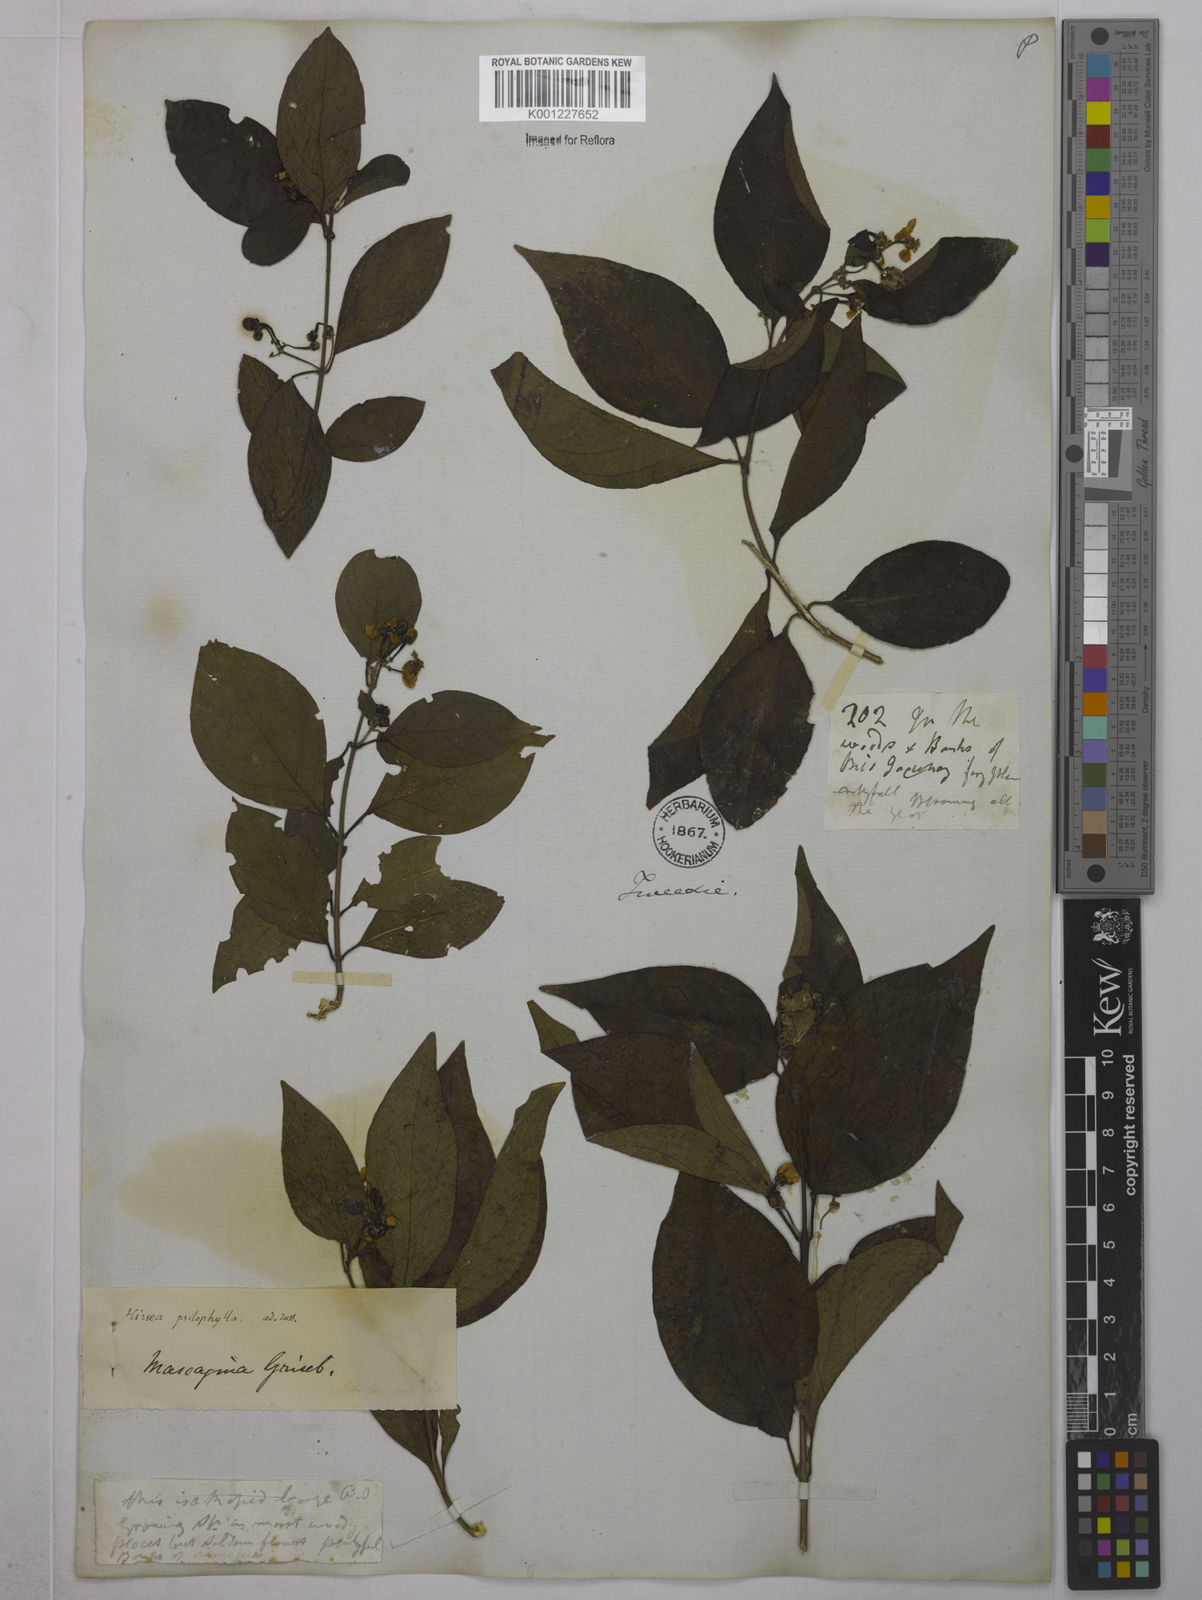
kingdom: Plantae
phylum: Tracheophyta
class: Magnoliopsida
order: Malpighiales
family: Malpighiaceae
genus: Callaeum
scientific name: Callaeum psilophyllum
